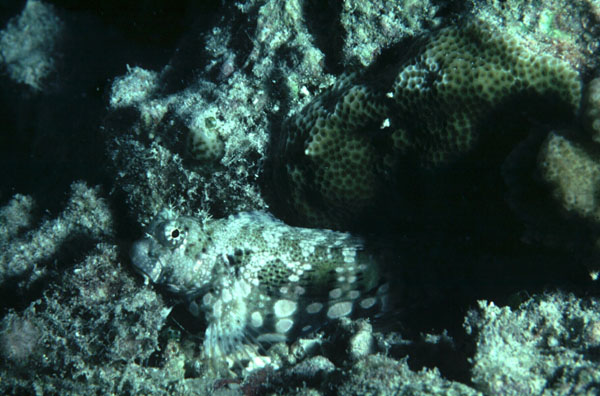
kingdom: Animalia
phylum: Chordata
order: Perciformes
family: Blenniidae
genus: Salarias
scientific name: Salarias fasciatus
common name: Jewelled blenny
